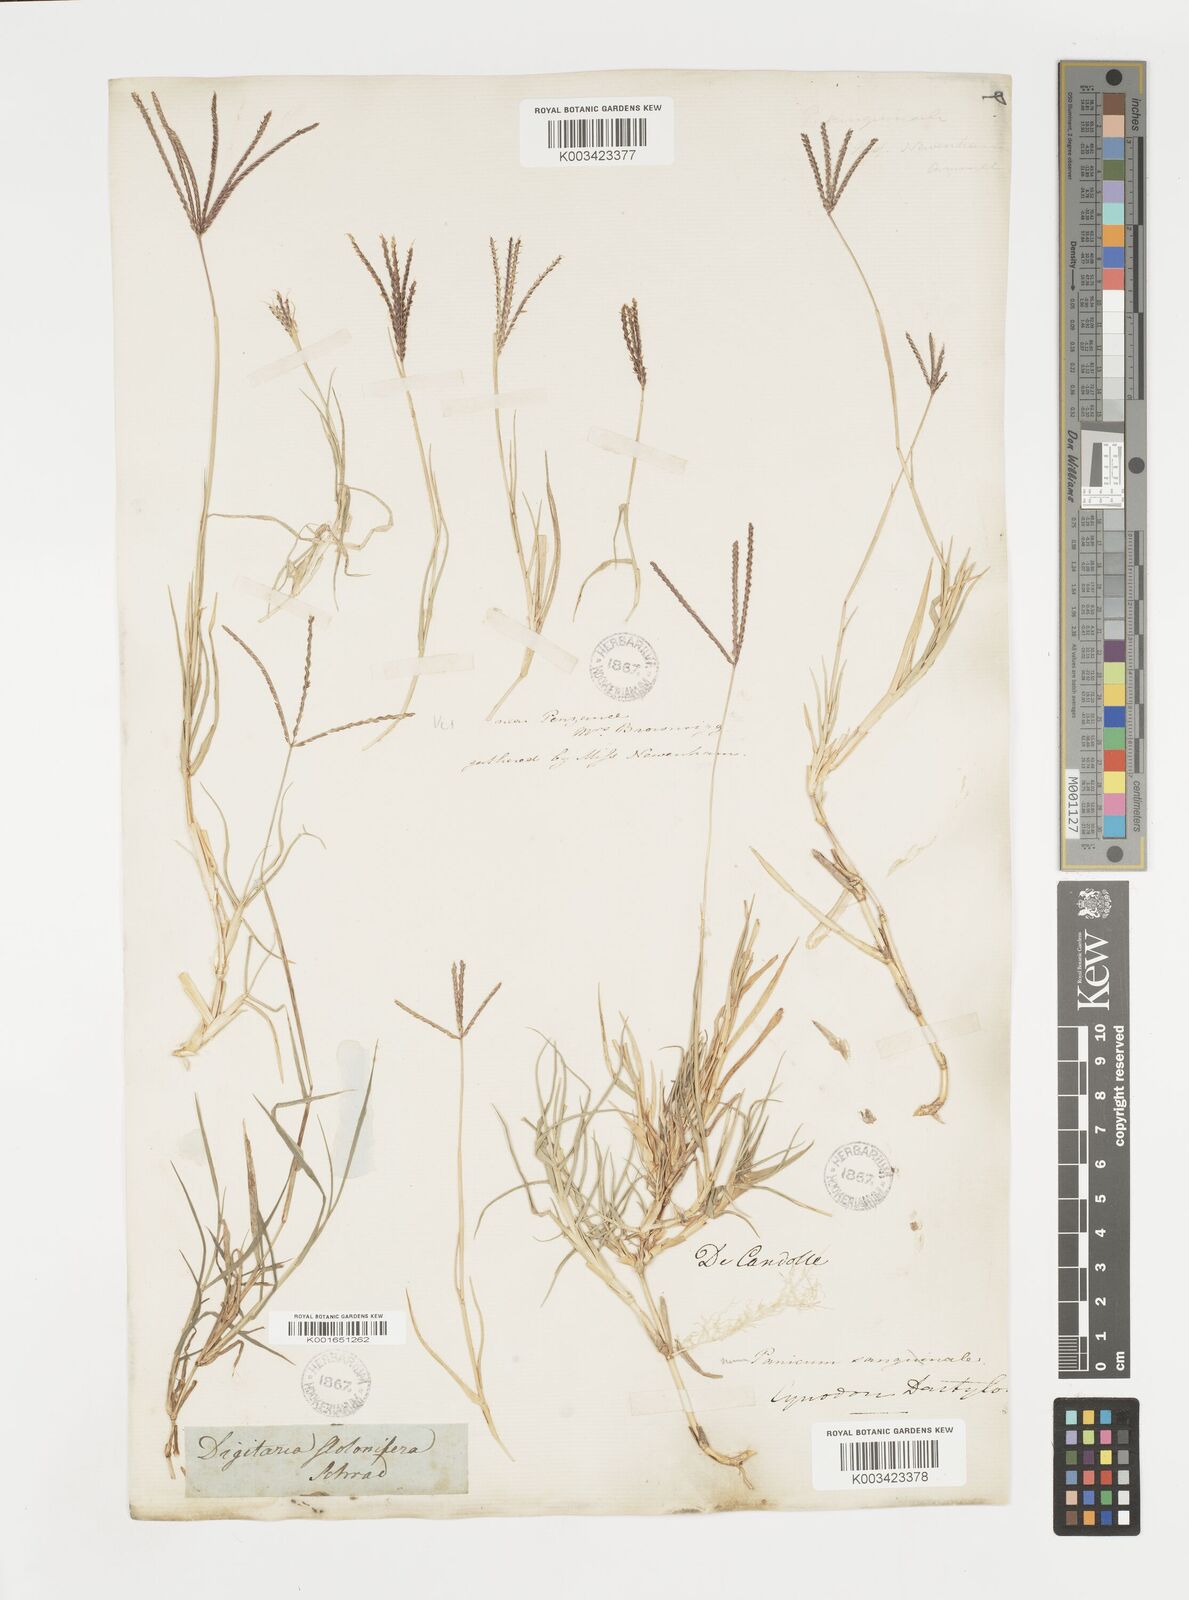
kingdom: Plantae
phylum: Tracheophyta
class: Liliopsida
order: Poales
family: Poaceae
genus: Cynodon
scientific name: Cynodon dactylon
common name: Bermuda grass
